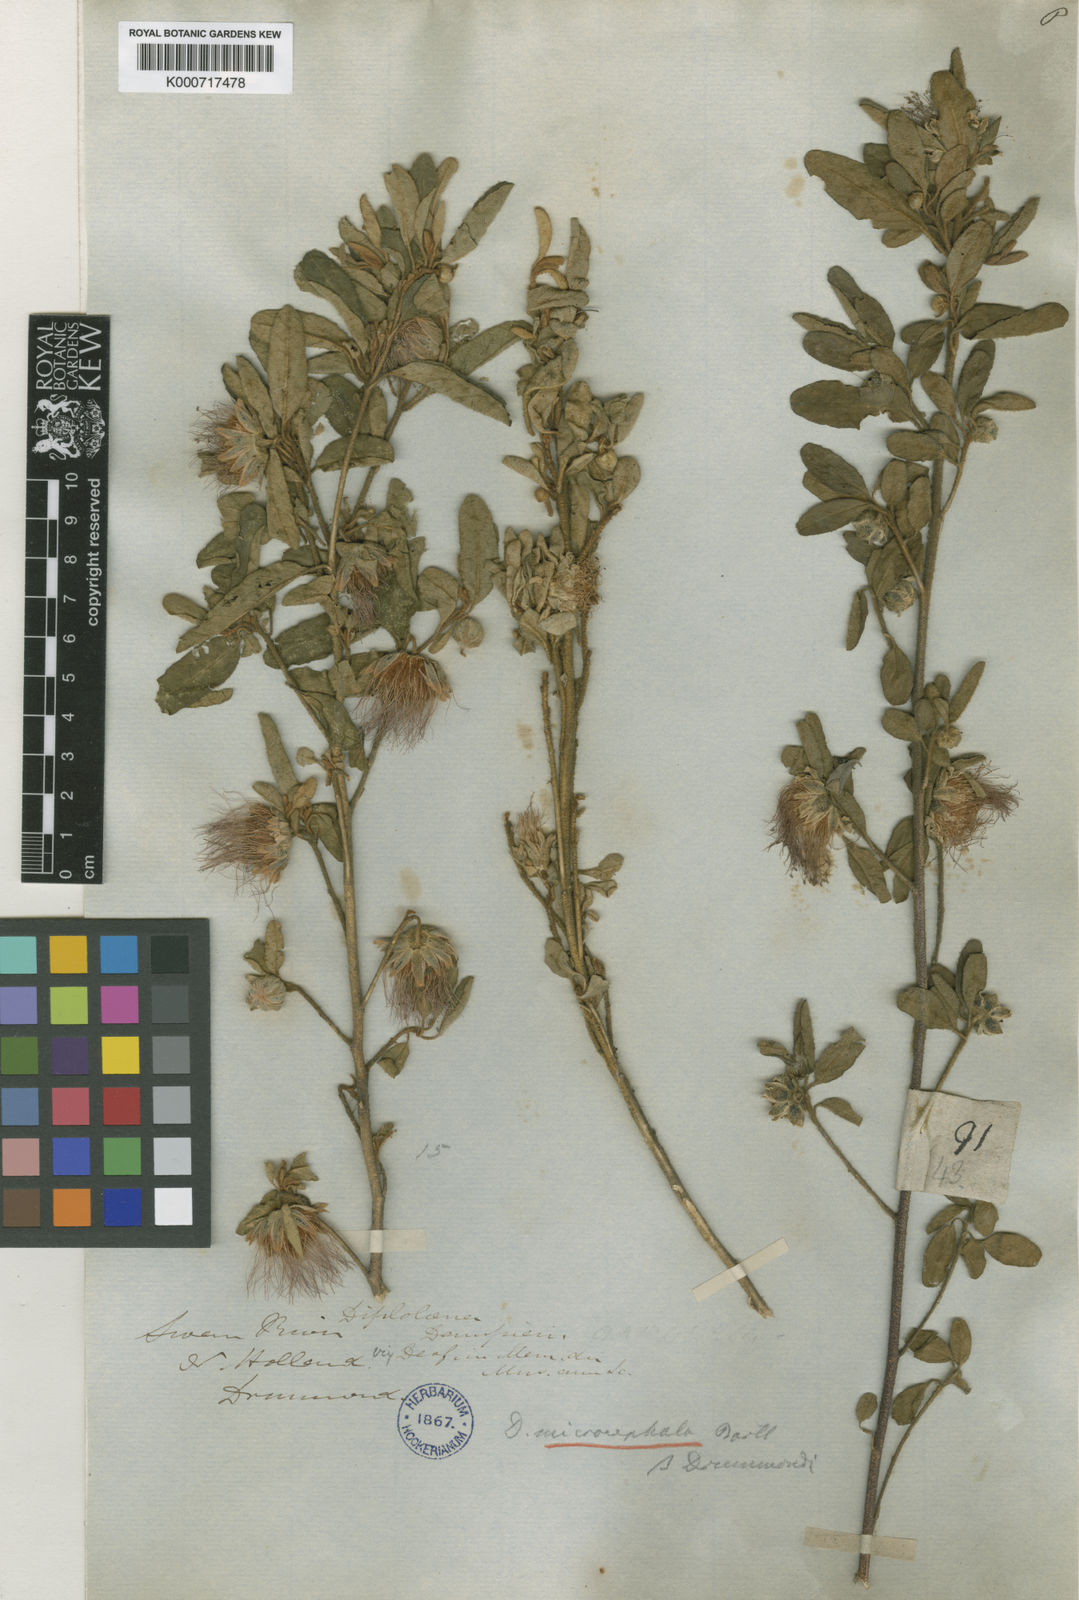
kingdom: Plantae
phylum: Tracheophyta
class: Magnoliopsida
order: Sapindales
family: Rutaceae
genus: Diplolaena
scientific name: Diplolaena drummondii
